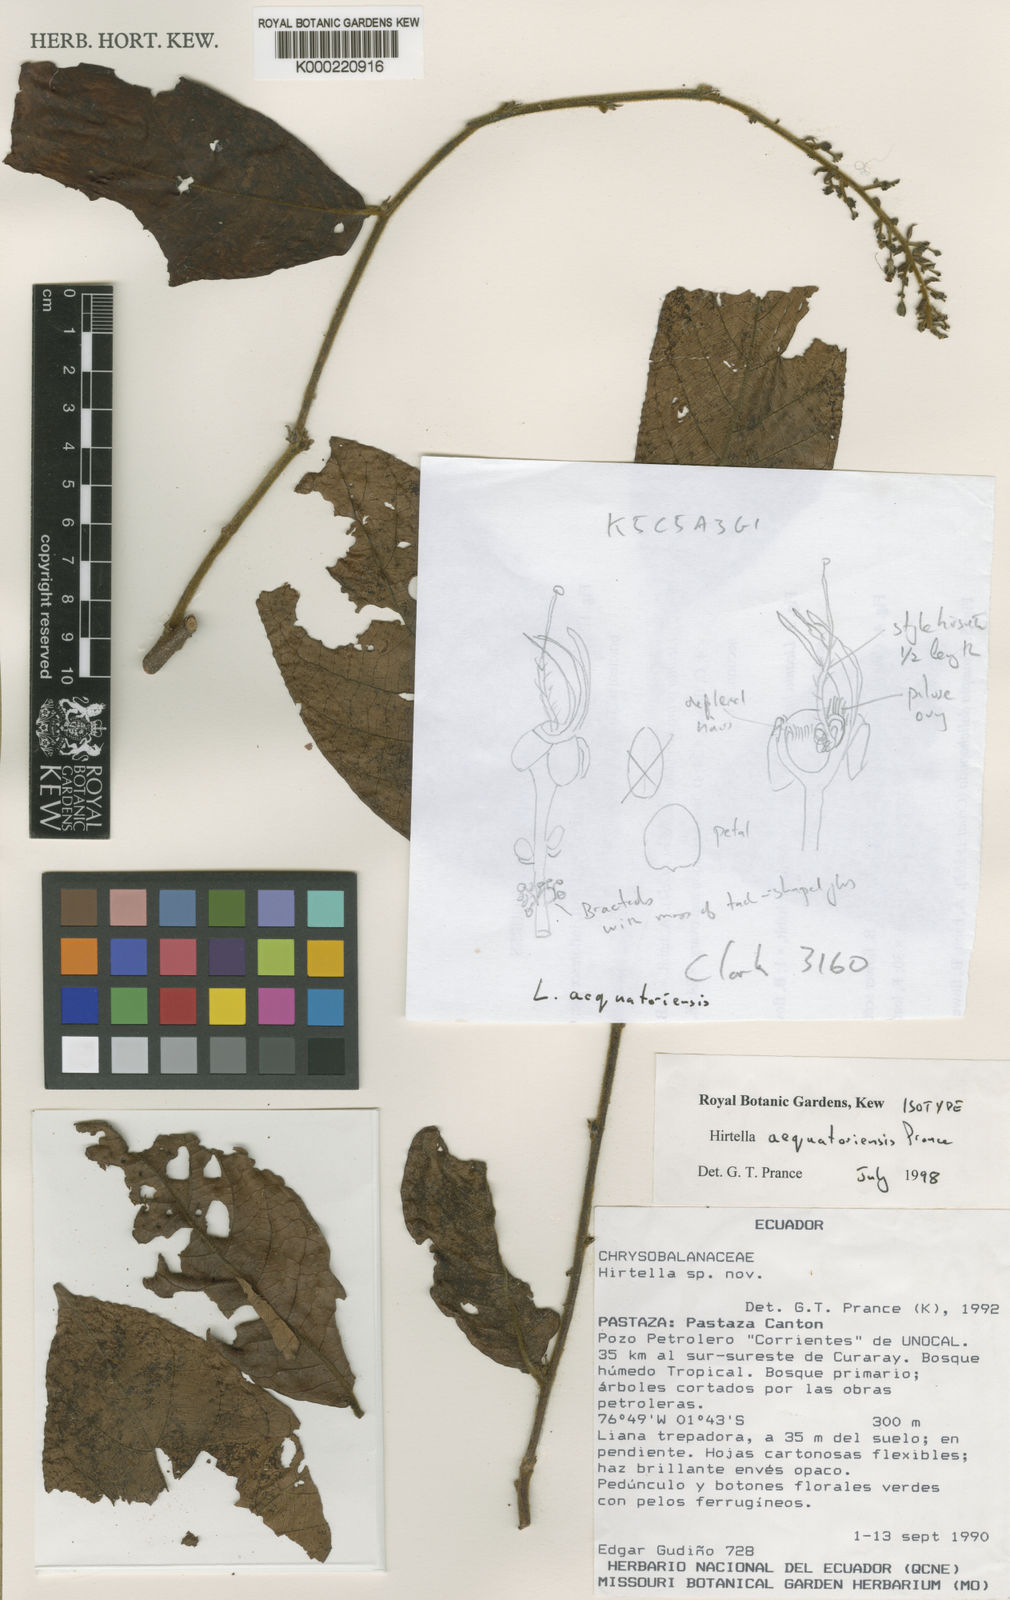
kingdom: Plantae
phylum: Tracheophyta
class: Magnoliopsida
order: Malpighiales
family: Chrysobalanaceae
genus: Hirtella
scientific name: Hirtella aequatoriensis
